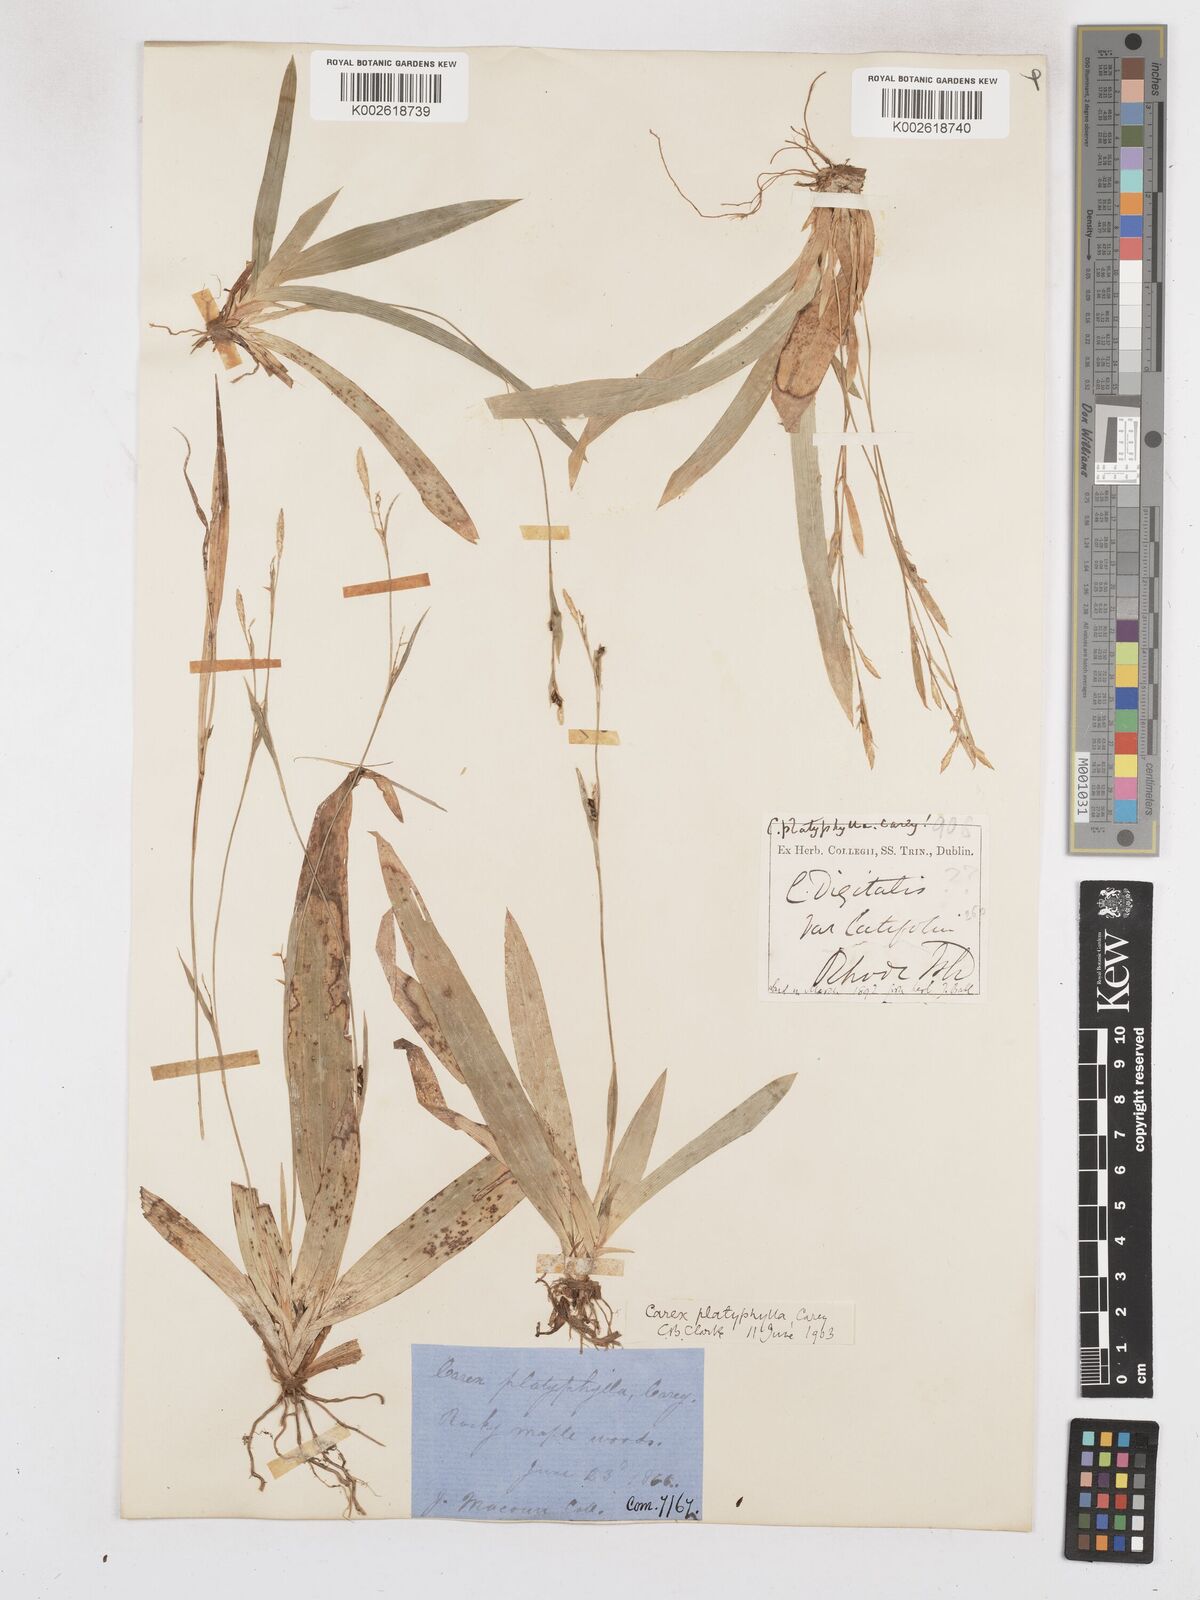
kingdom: Plantae
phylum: Tracheophyta
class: Liliopsida
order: Poales
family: Cyperaceae
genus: Carex
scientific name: Carex platyphylla
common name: Broad-leaved sedge
